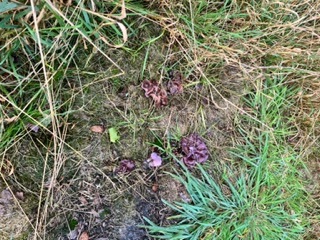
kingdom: Fungi
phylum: Basidiomycota
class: Agaricomycetes
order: Agaricales
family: Tricholomataceae
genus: Lepista
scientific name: Lepista lilacea
